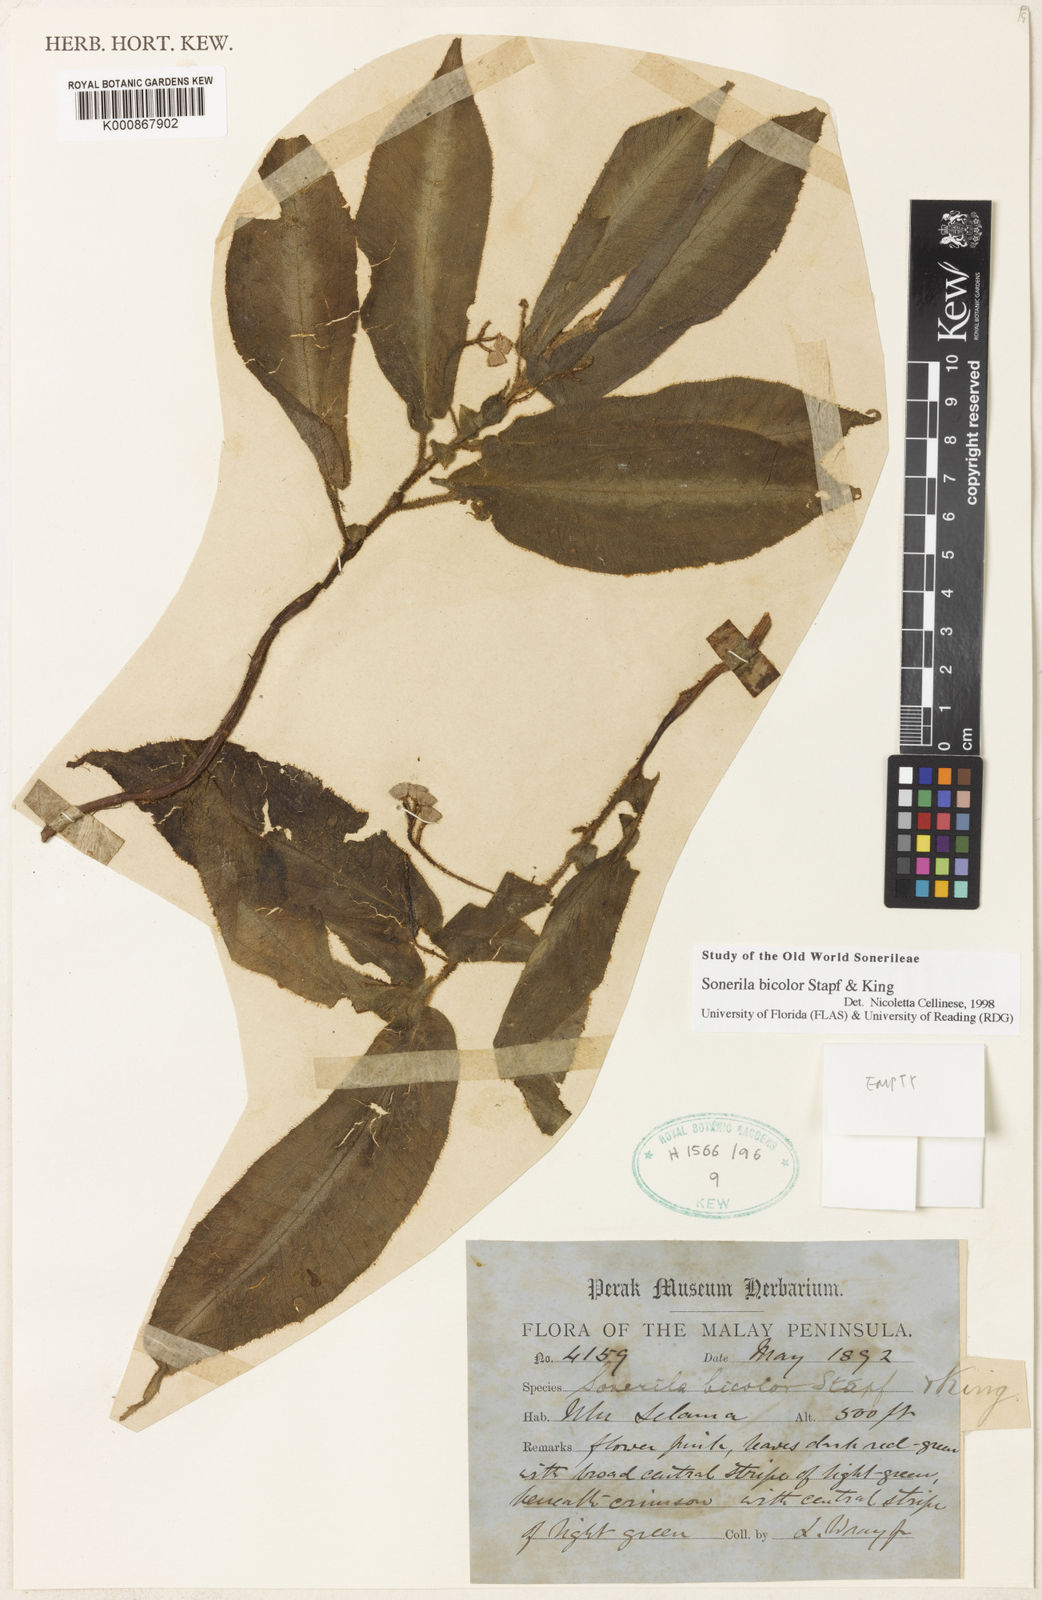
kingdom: Plantae
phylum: Tracheophyta
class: Magnoliopsida
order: Myrtales
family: Melastomataceae
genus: Sonerila
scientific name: Sonerila bicolor
